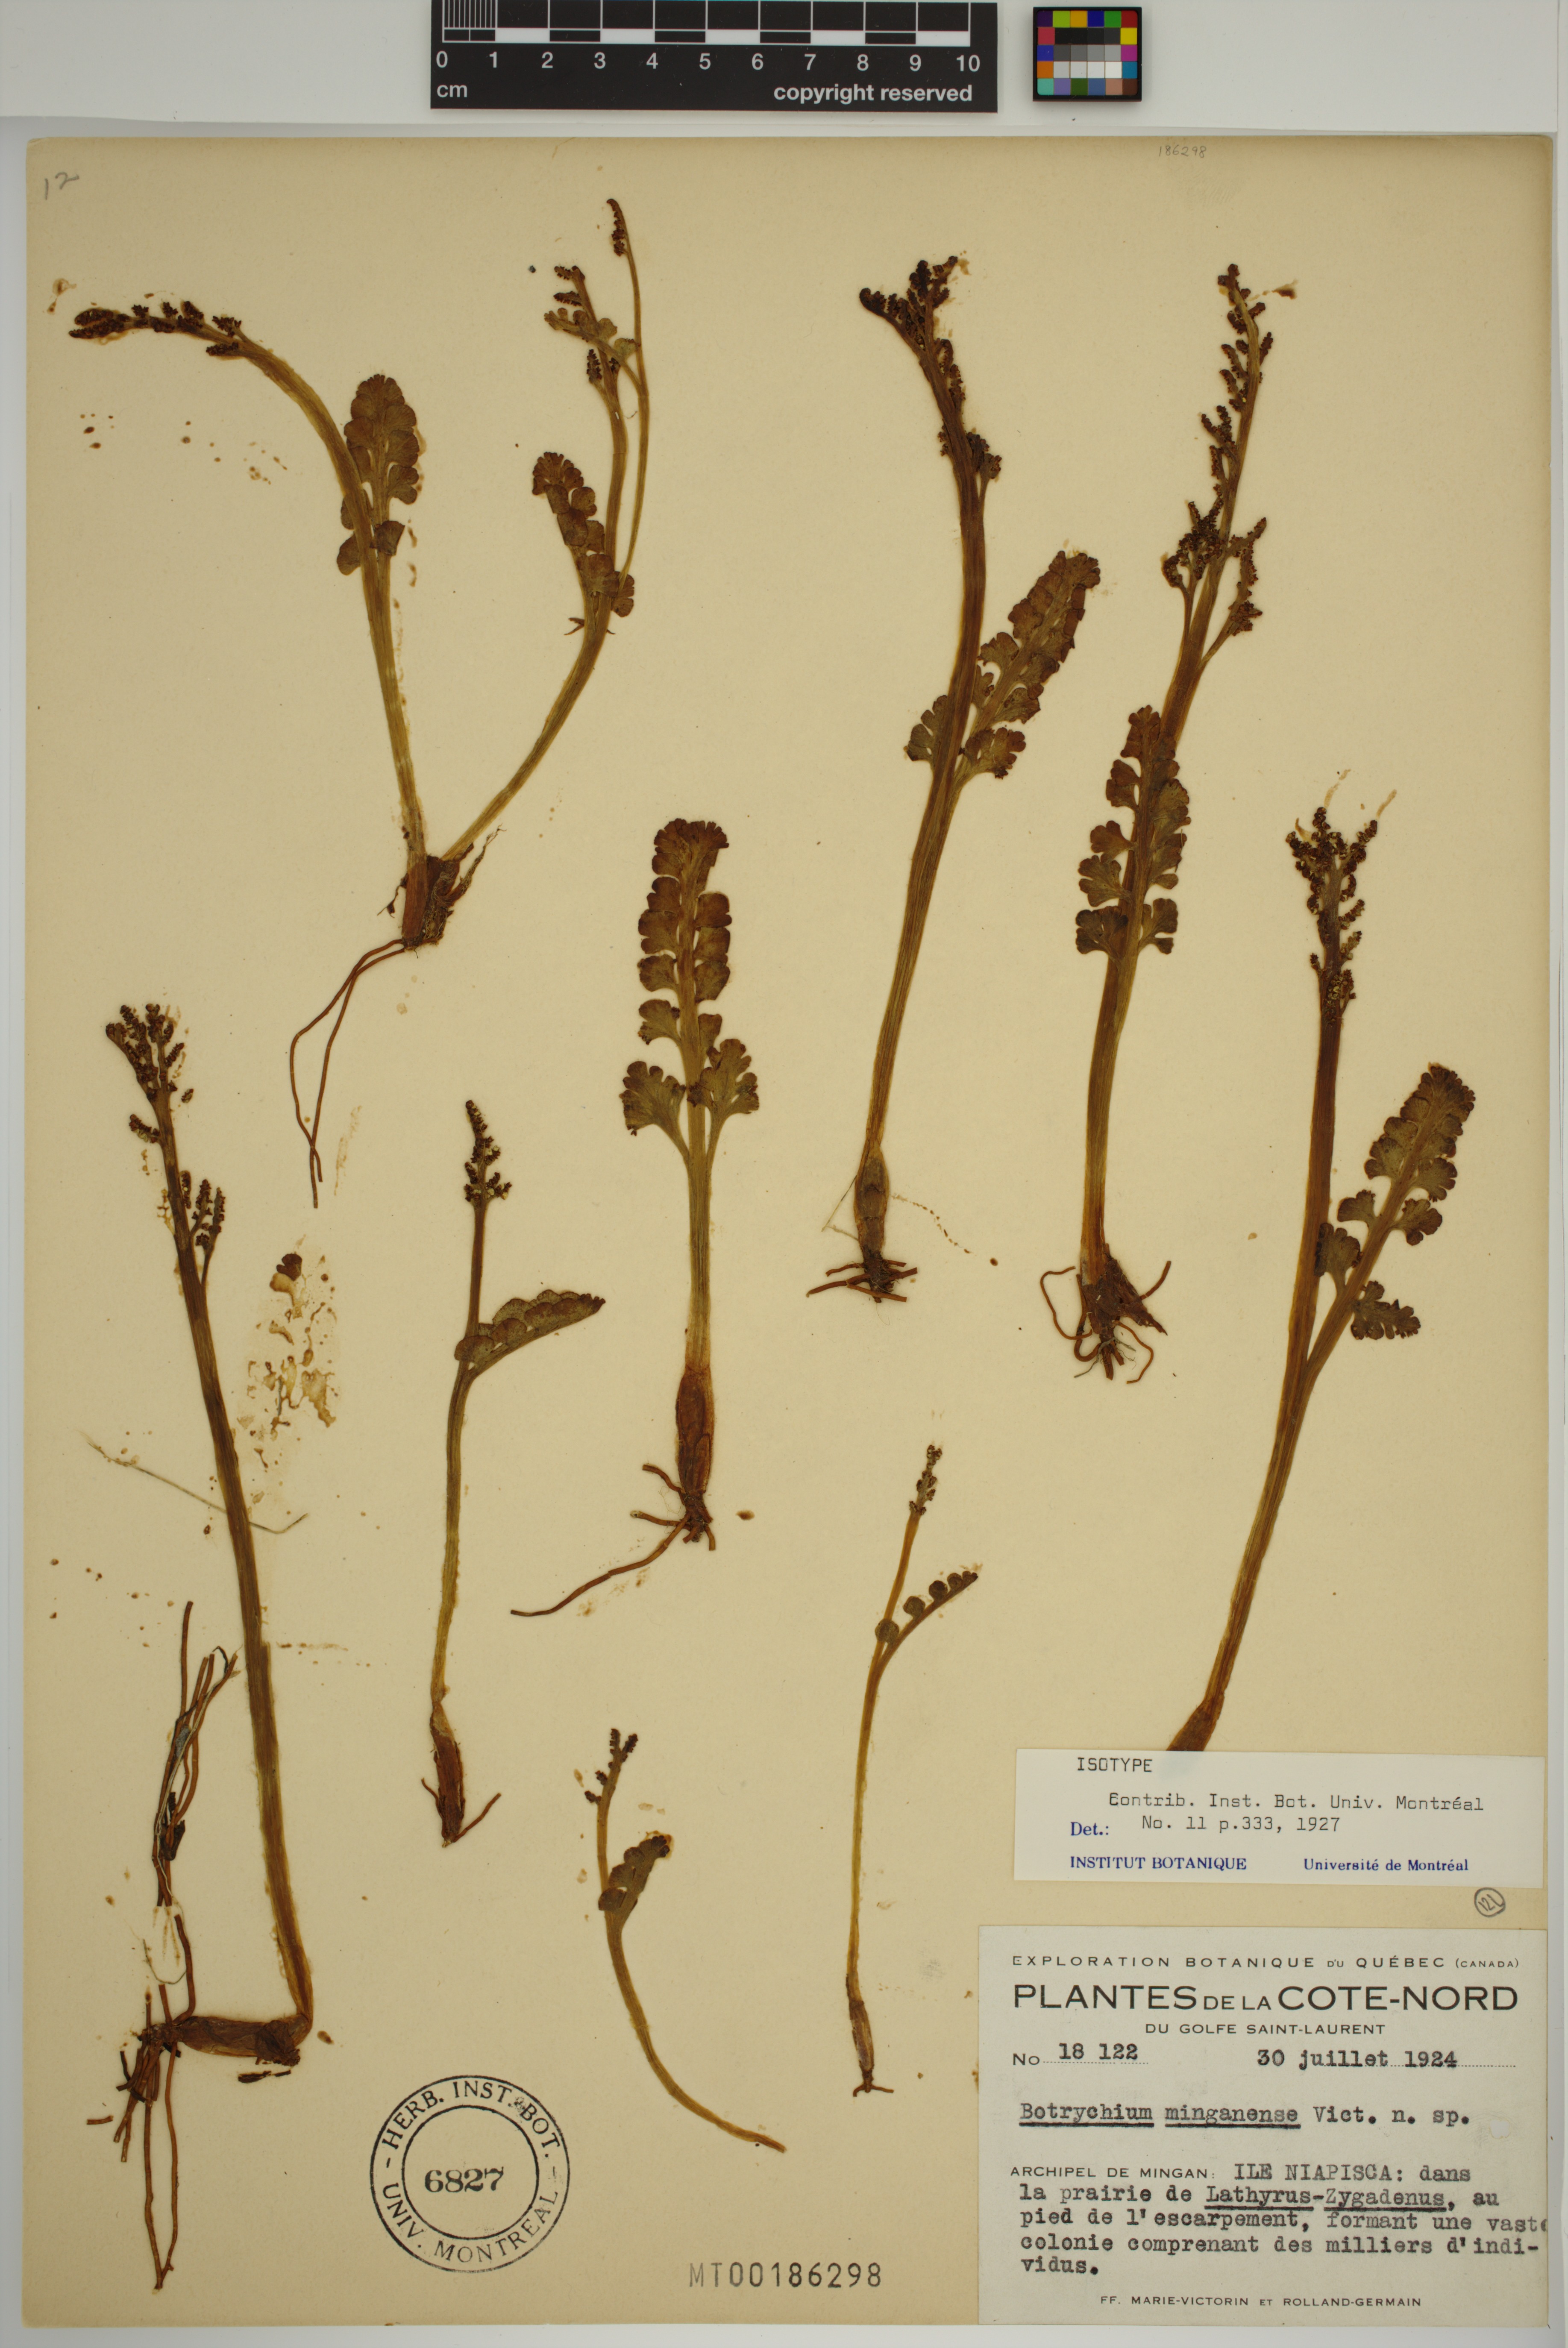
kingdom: Plantae
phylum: Tracheophyta
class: Polypodiopsida
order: Ophioglossales
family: Ophioglossaceae
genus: Botrychium
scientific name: Botrychium minganense
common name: Mingan grapefern
